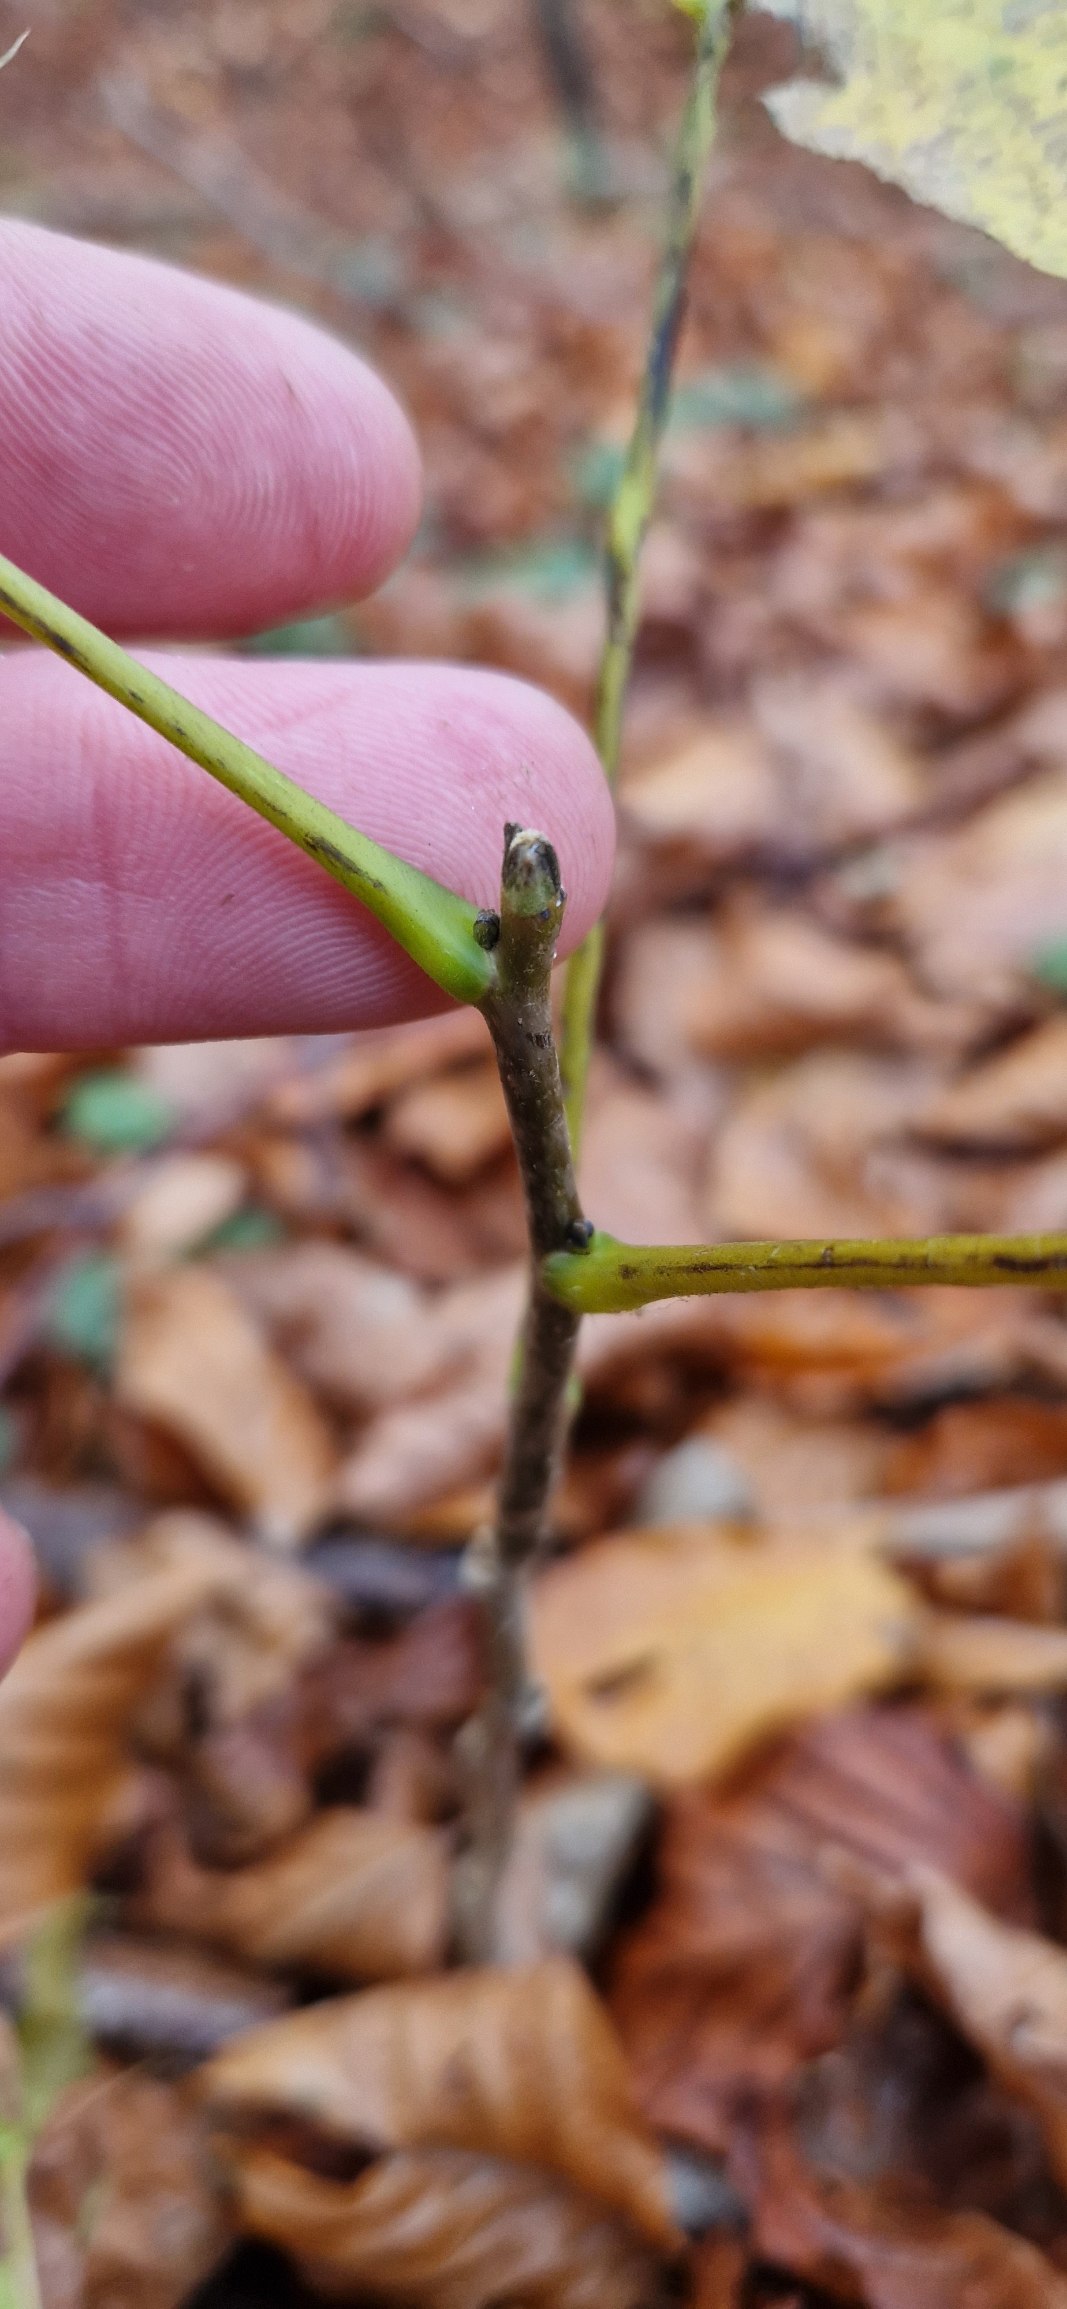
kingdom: Plantae
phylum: Tracheophyta
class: Magnoliopsida
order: Fagales
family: Juglandaceae
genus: Juglans
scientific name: Juglans regia
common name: Almindelig valnød
